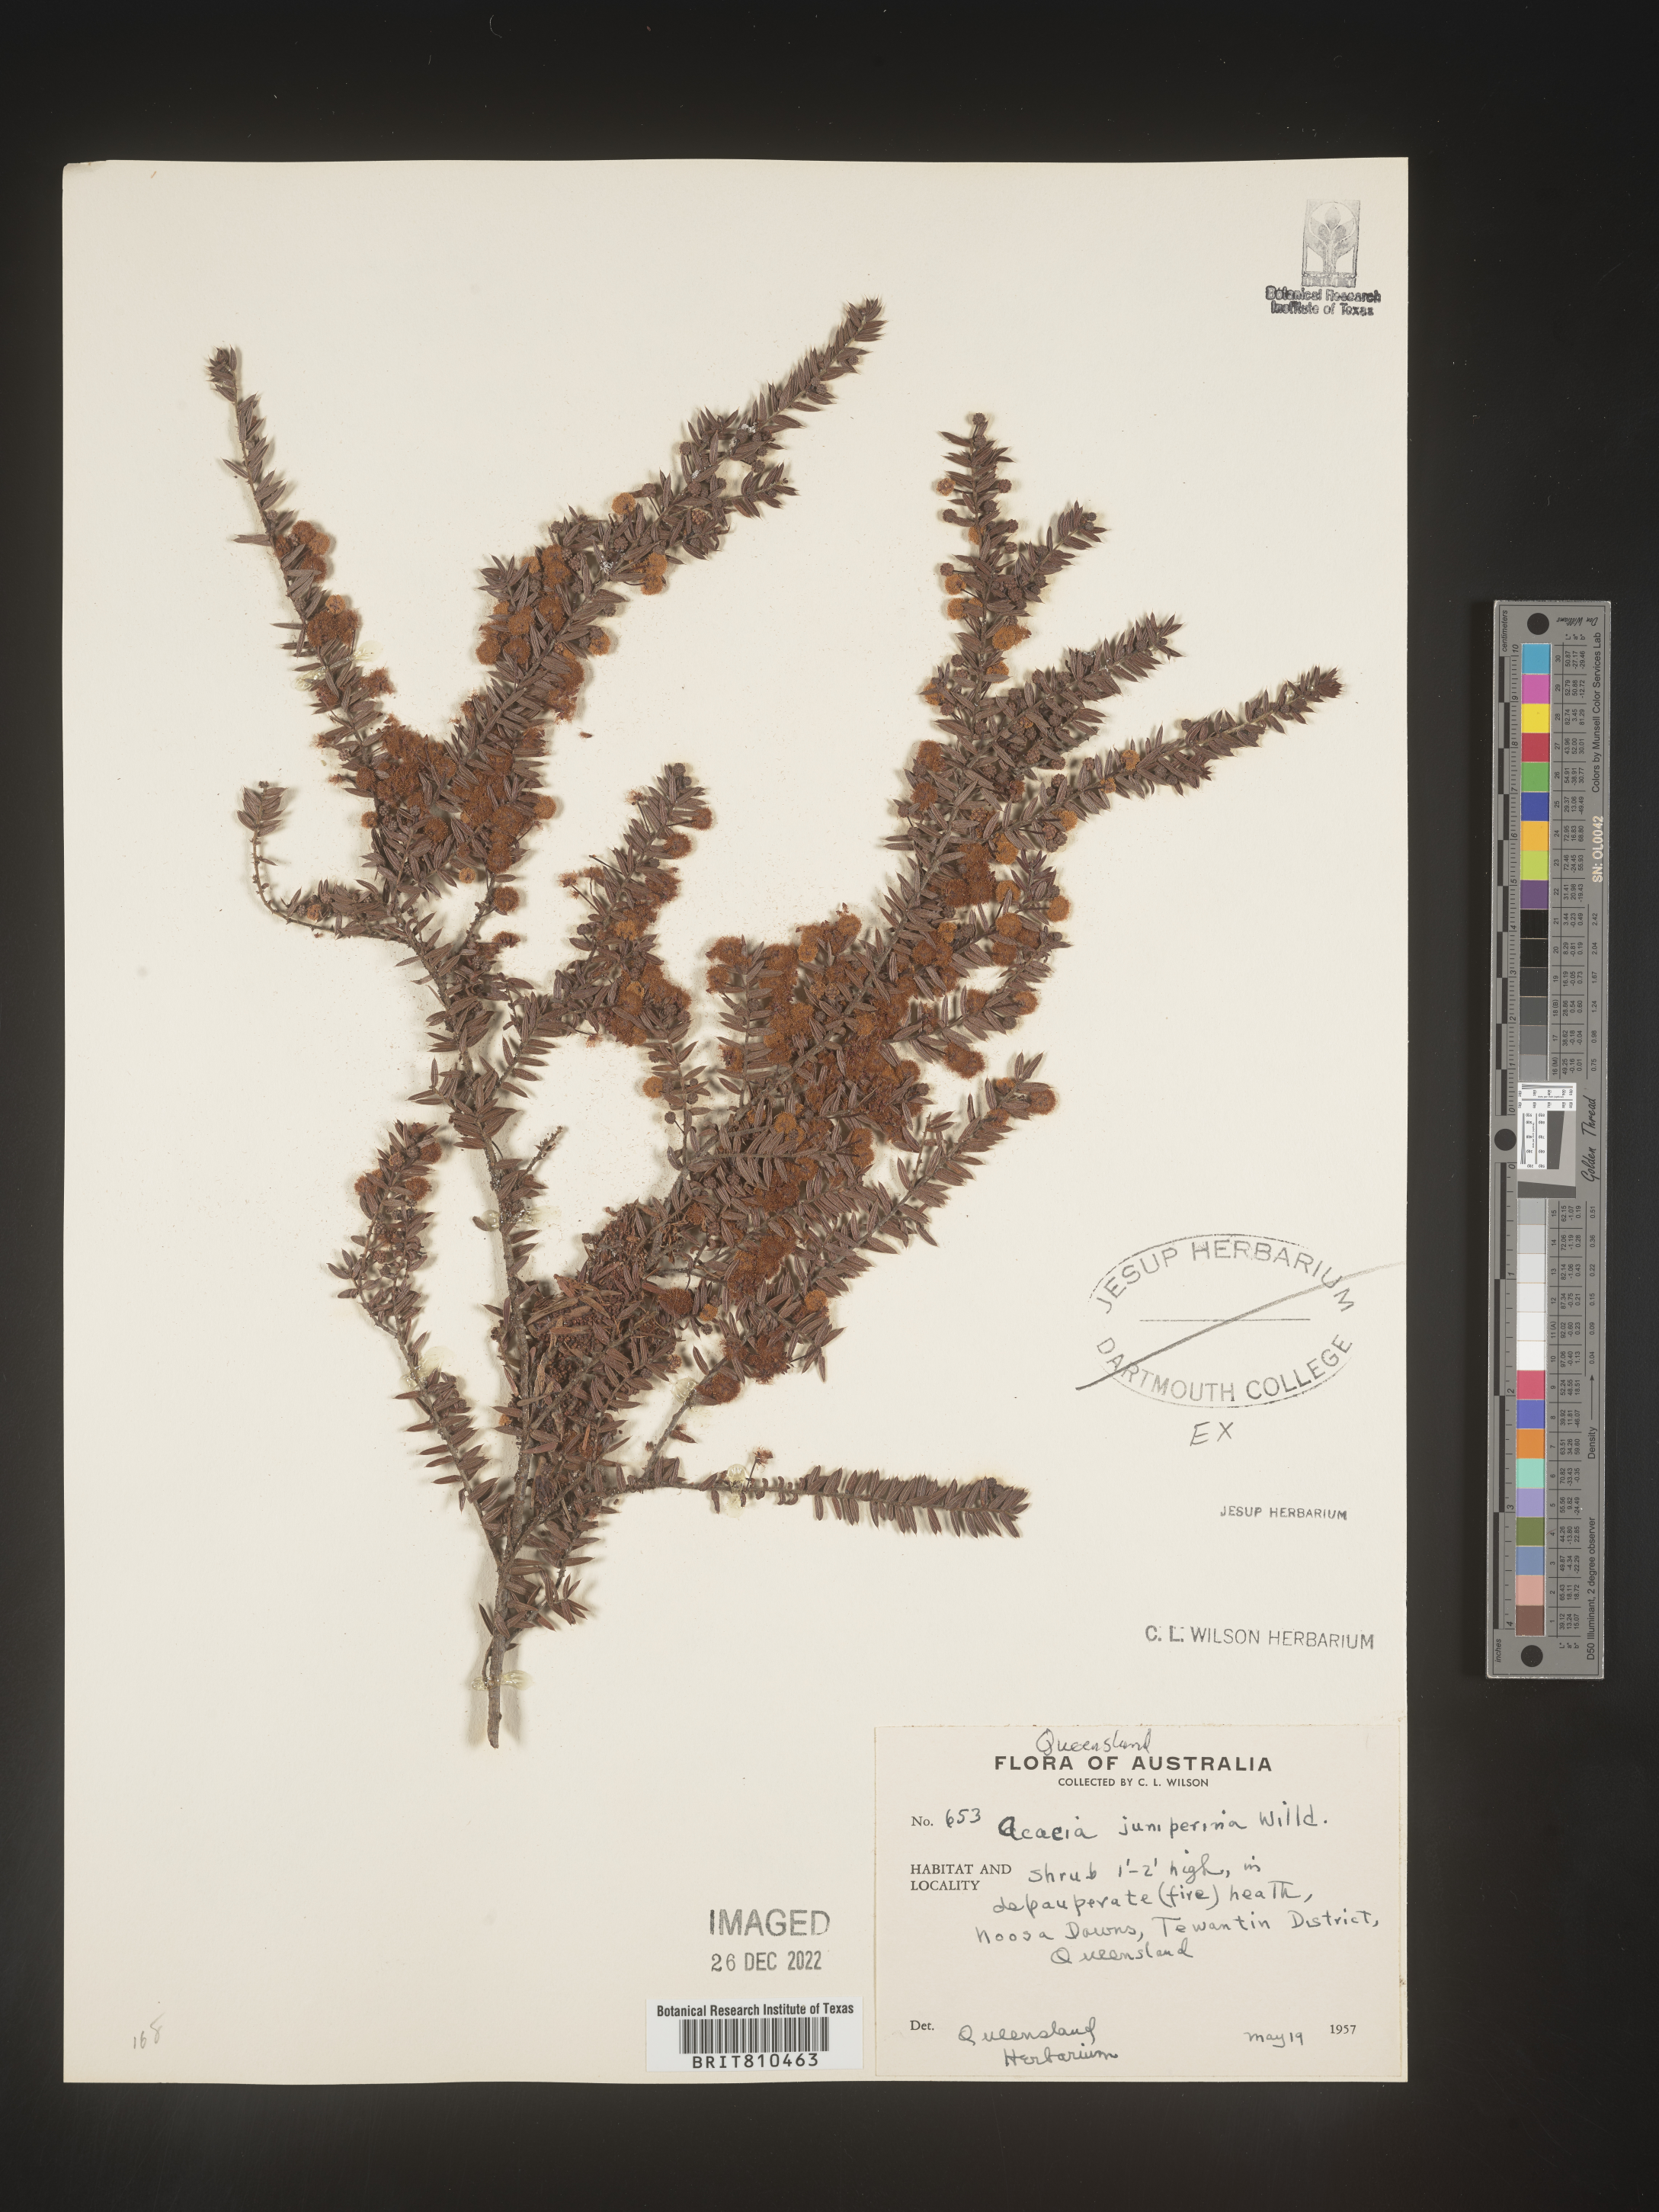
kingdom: Plantae
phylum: Tracheophyta
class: Magnoliopsida
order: Fabales
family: Fabaceae
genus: Acacia
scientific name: Acacia
